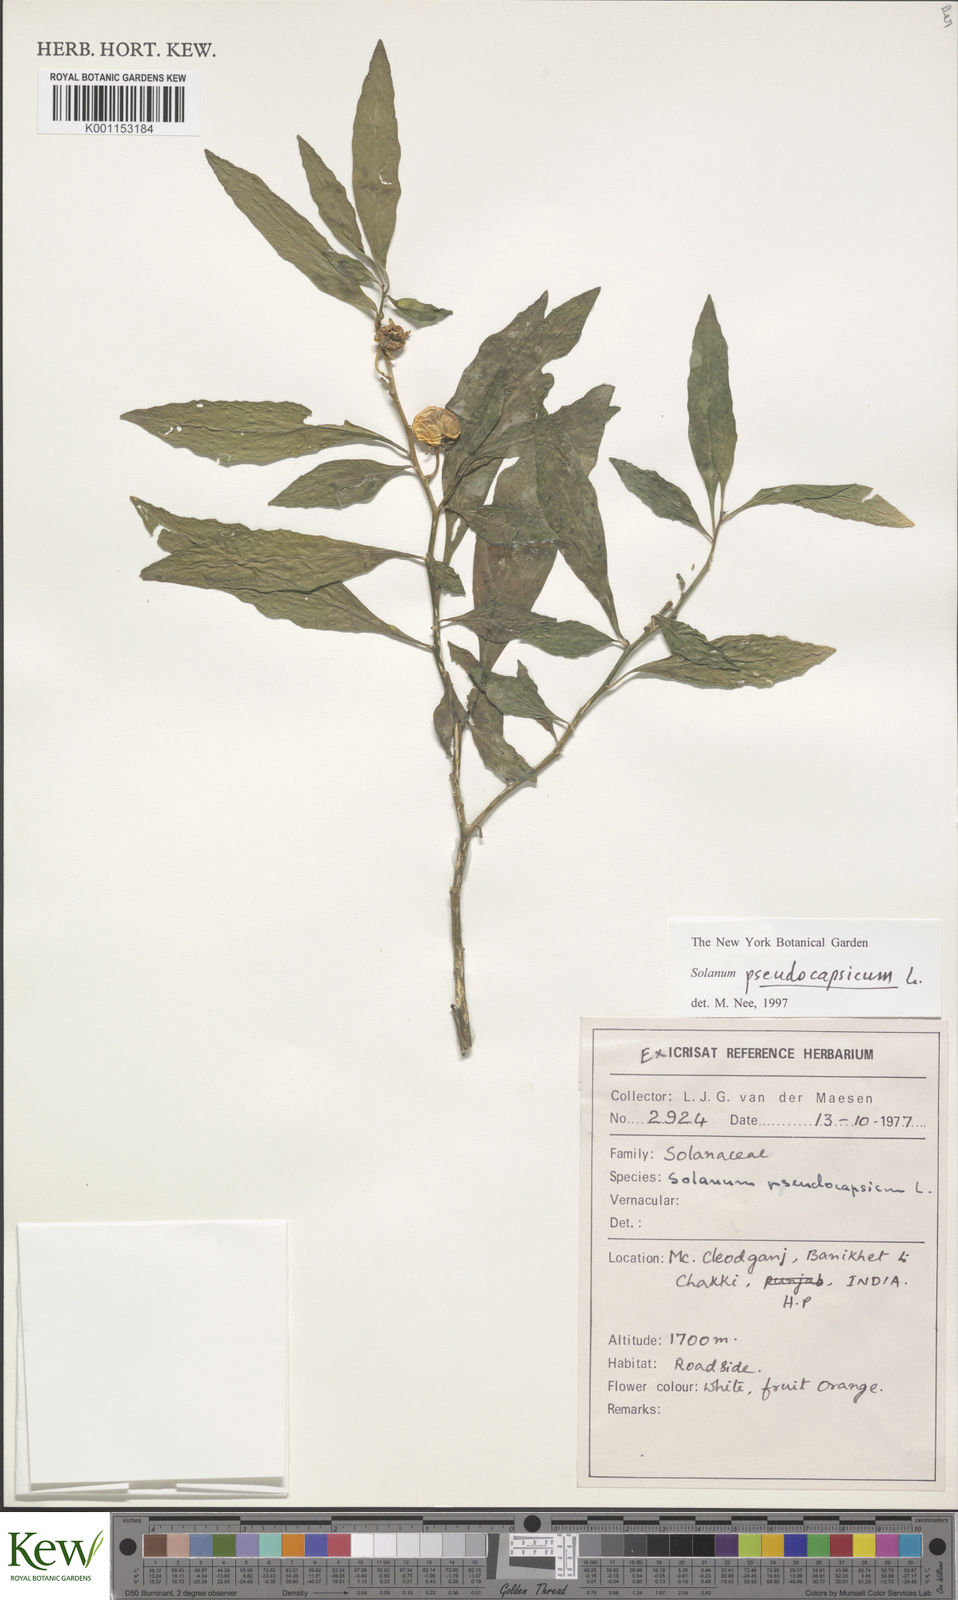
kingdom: Plantae
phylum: Tracheophyta
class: Magnoliopsida
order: Solanales
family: Solanaceae
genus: Solanum
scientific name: Solanum pseudocapsicum
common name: Jerusalem cherry
